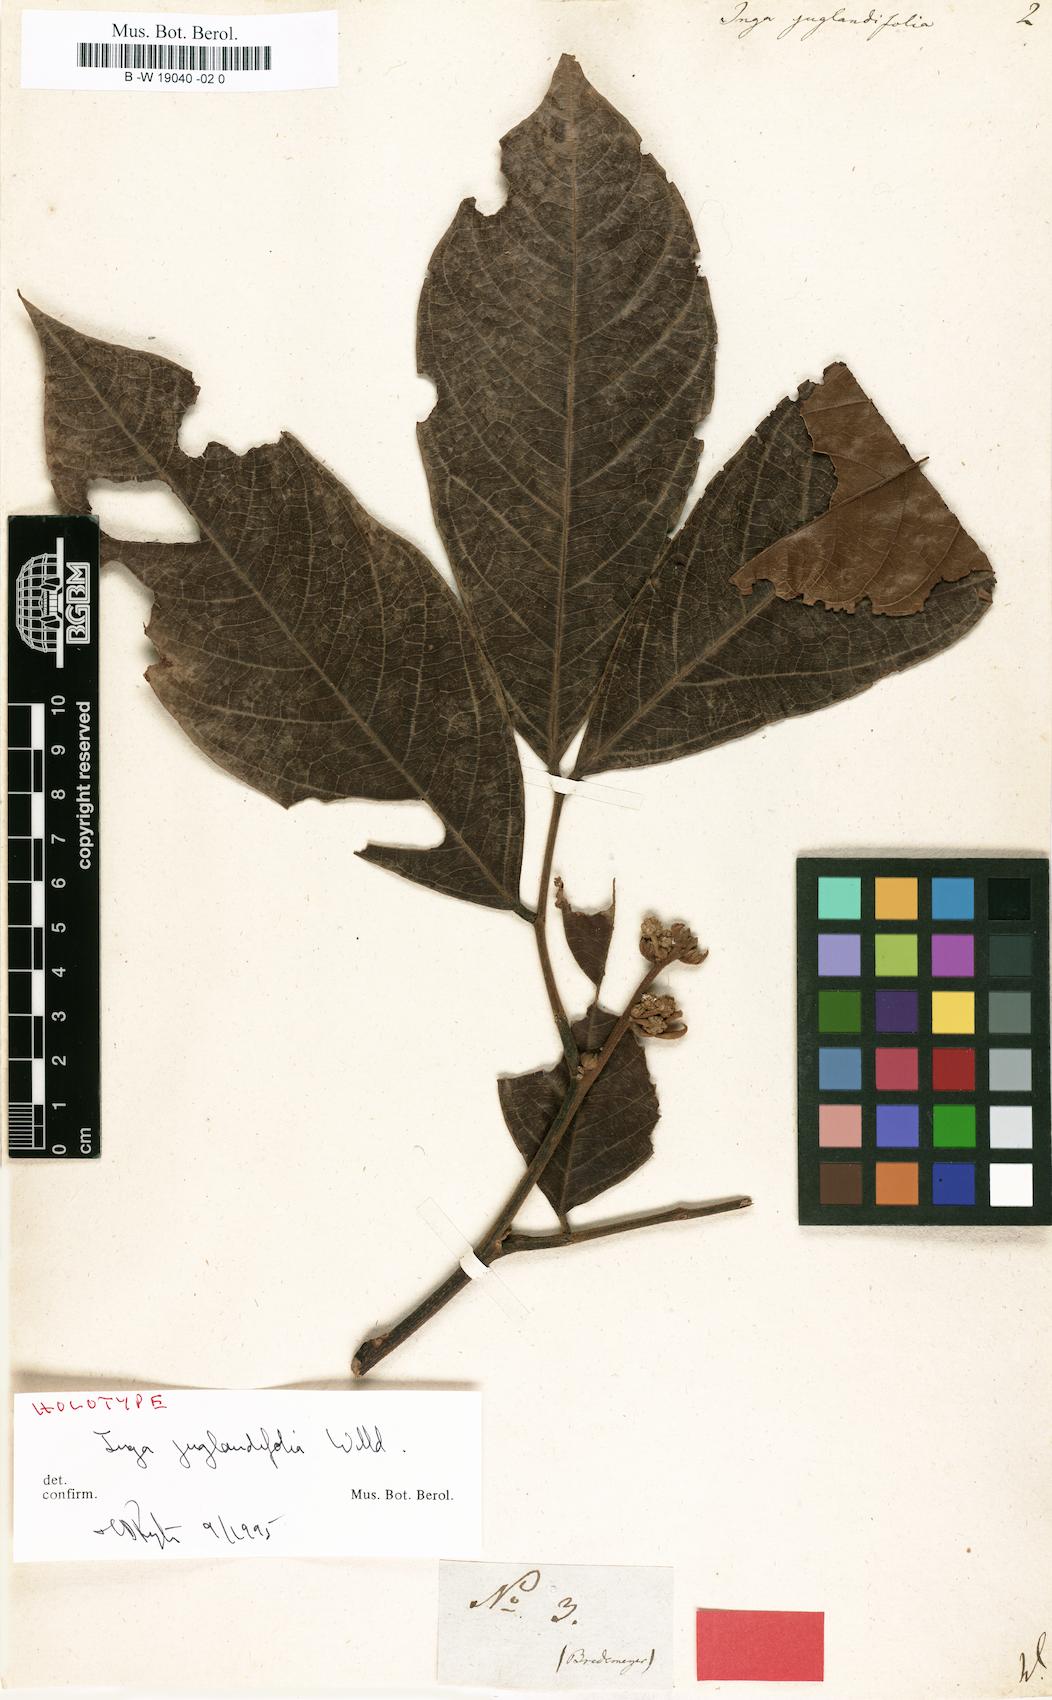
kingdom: Plantae
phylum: Tracheophyta
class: Magnoliopsida
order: Fabales
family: Fabaceae
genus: Inga
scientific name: Inga
